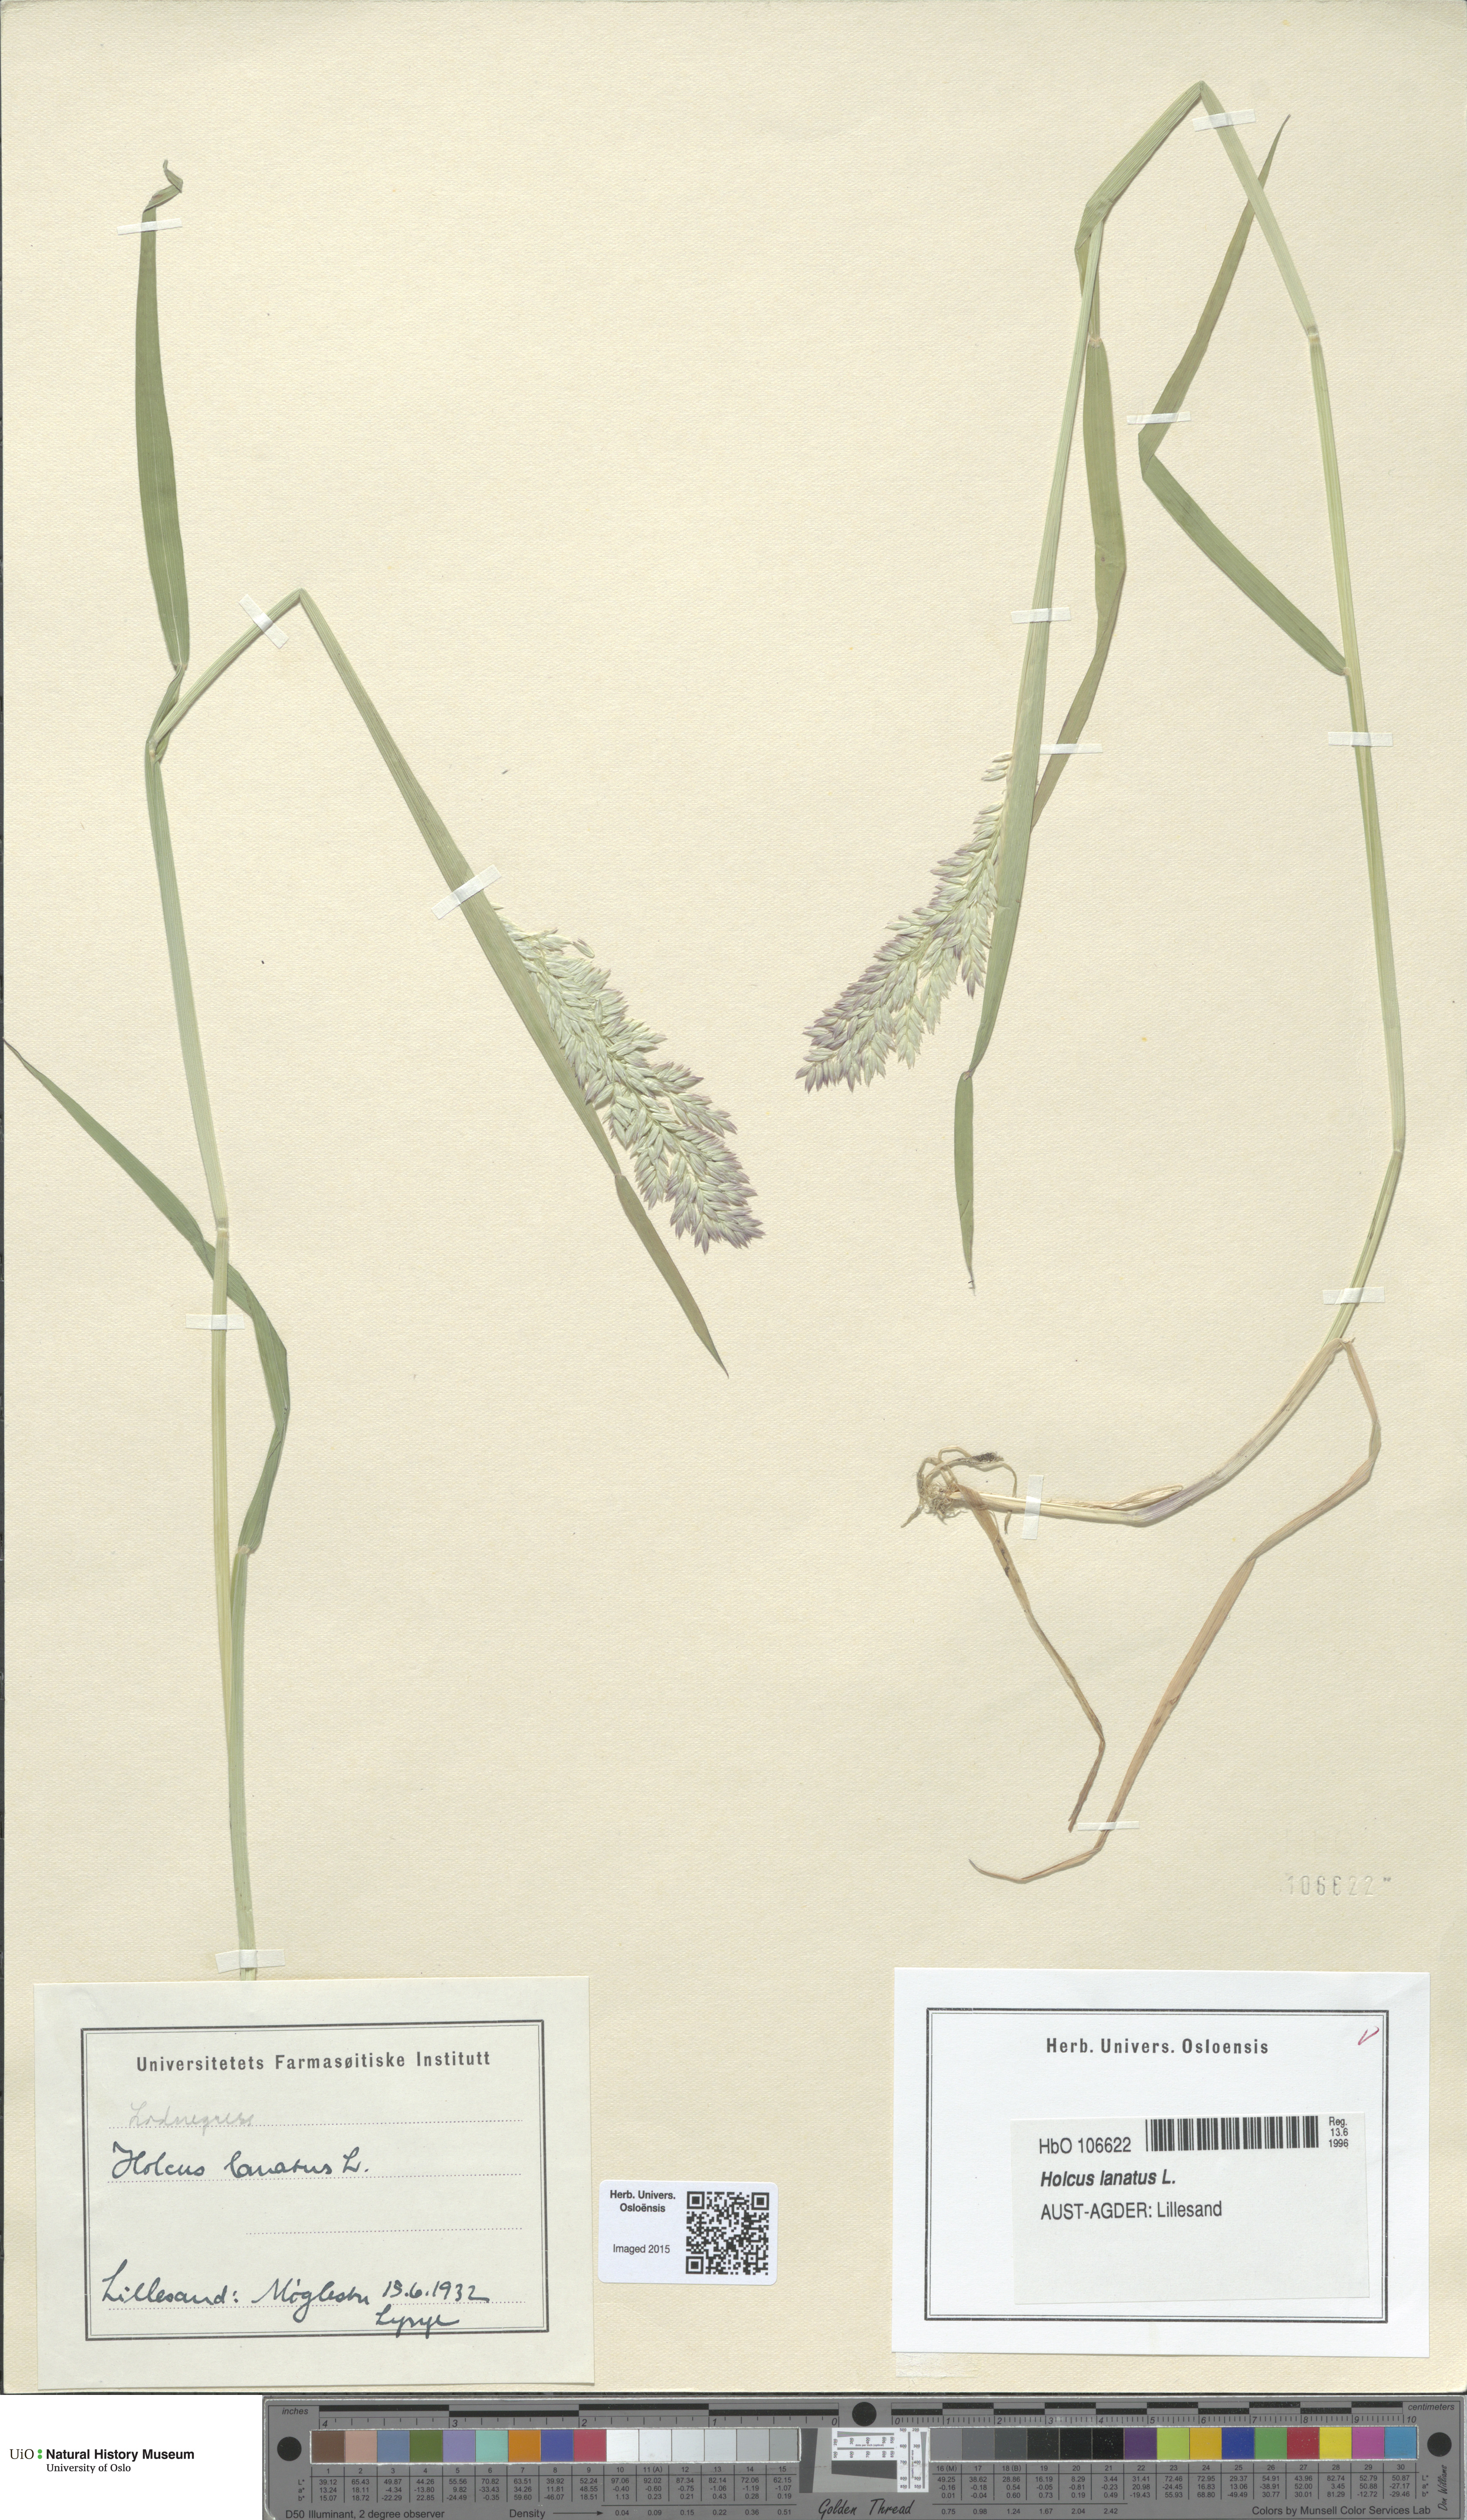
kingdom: Plantae
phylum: Tracheophyta
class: Liliopsida
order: Poales
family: Poaceae
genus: Holcus
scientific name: Holcus lanatus
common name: Yorkshire-fog
